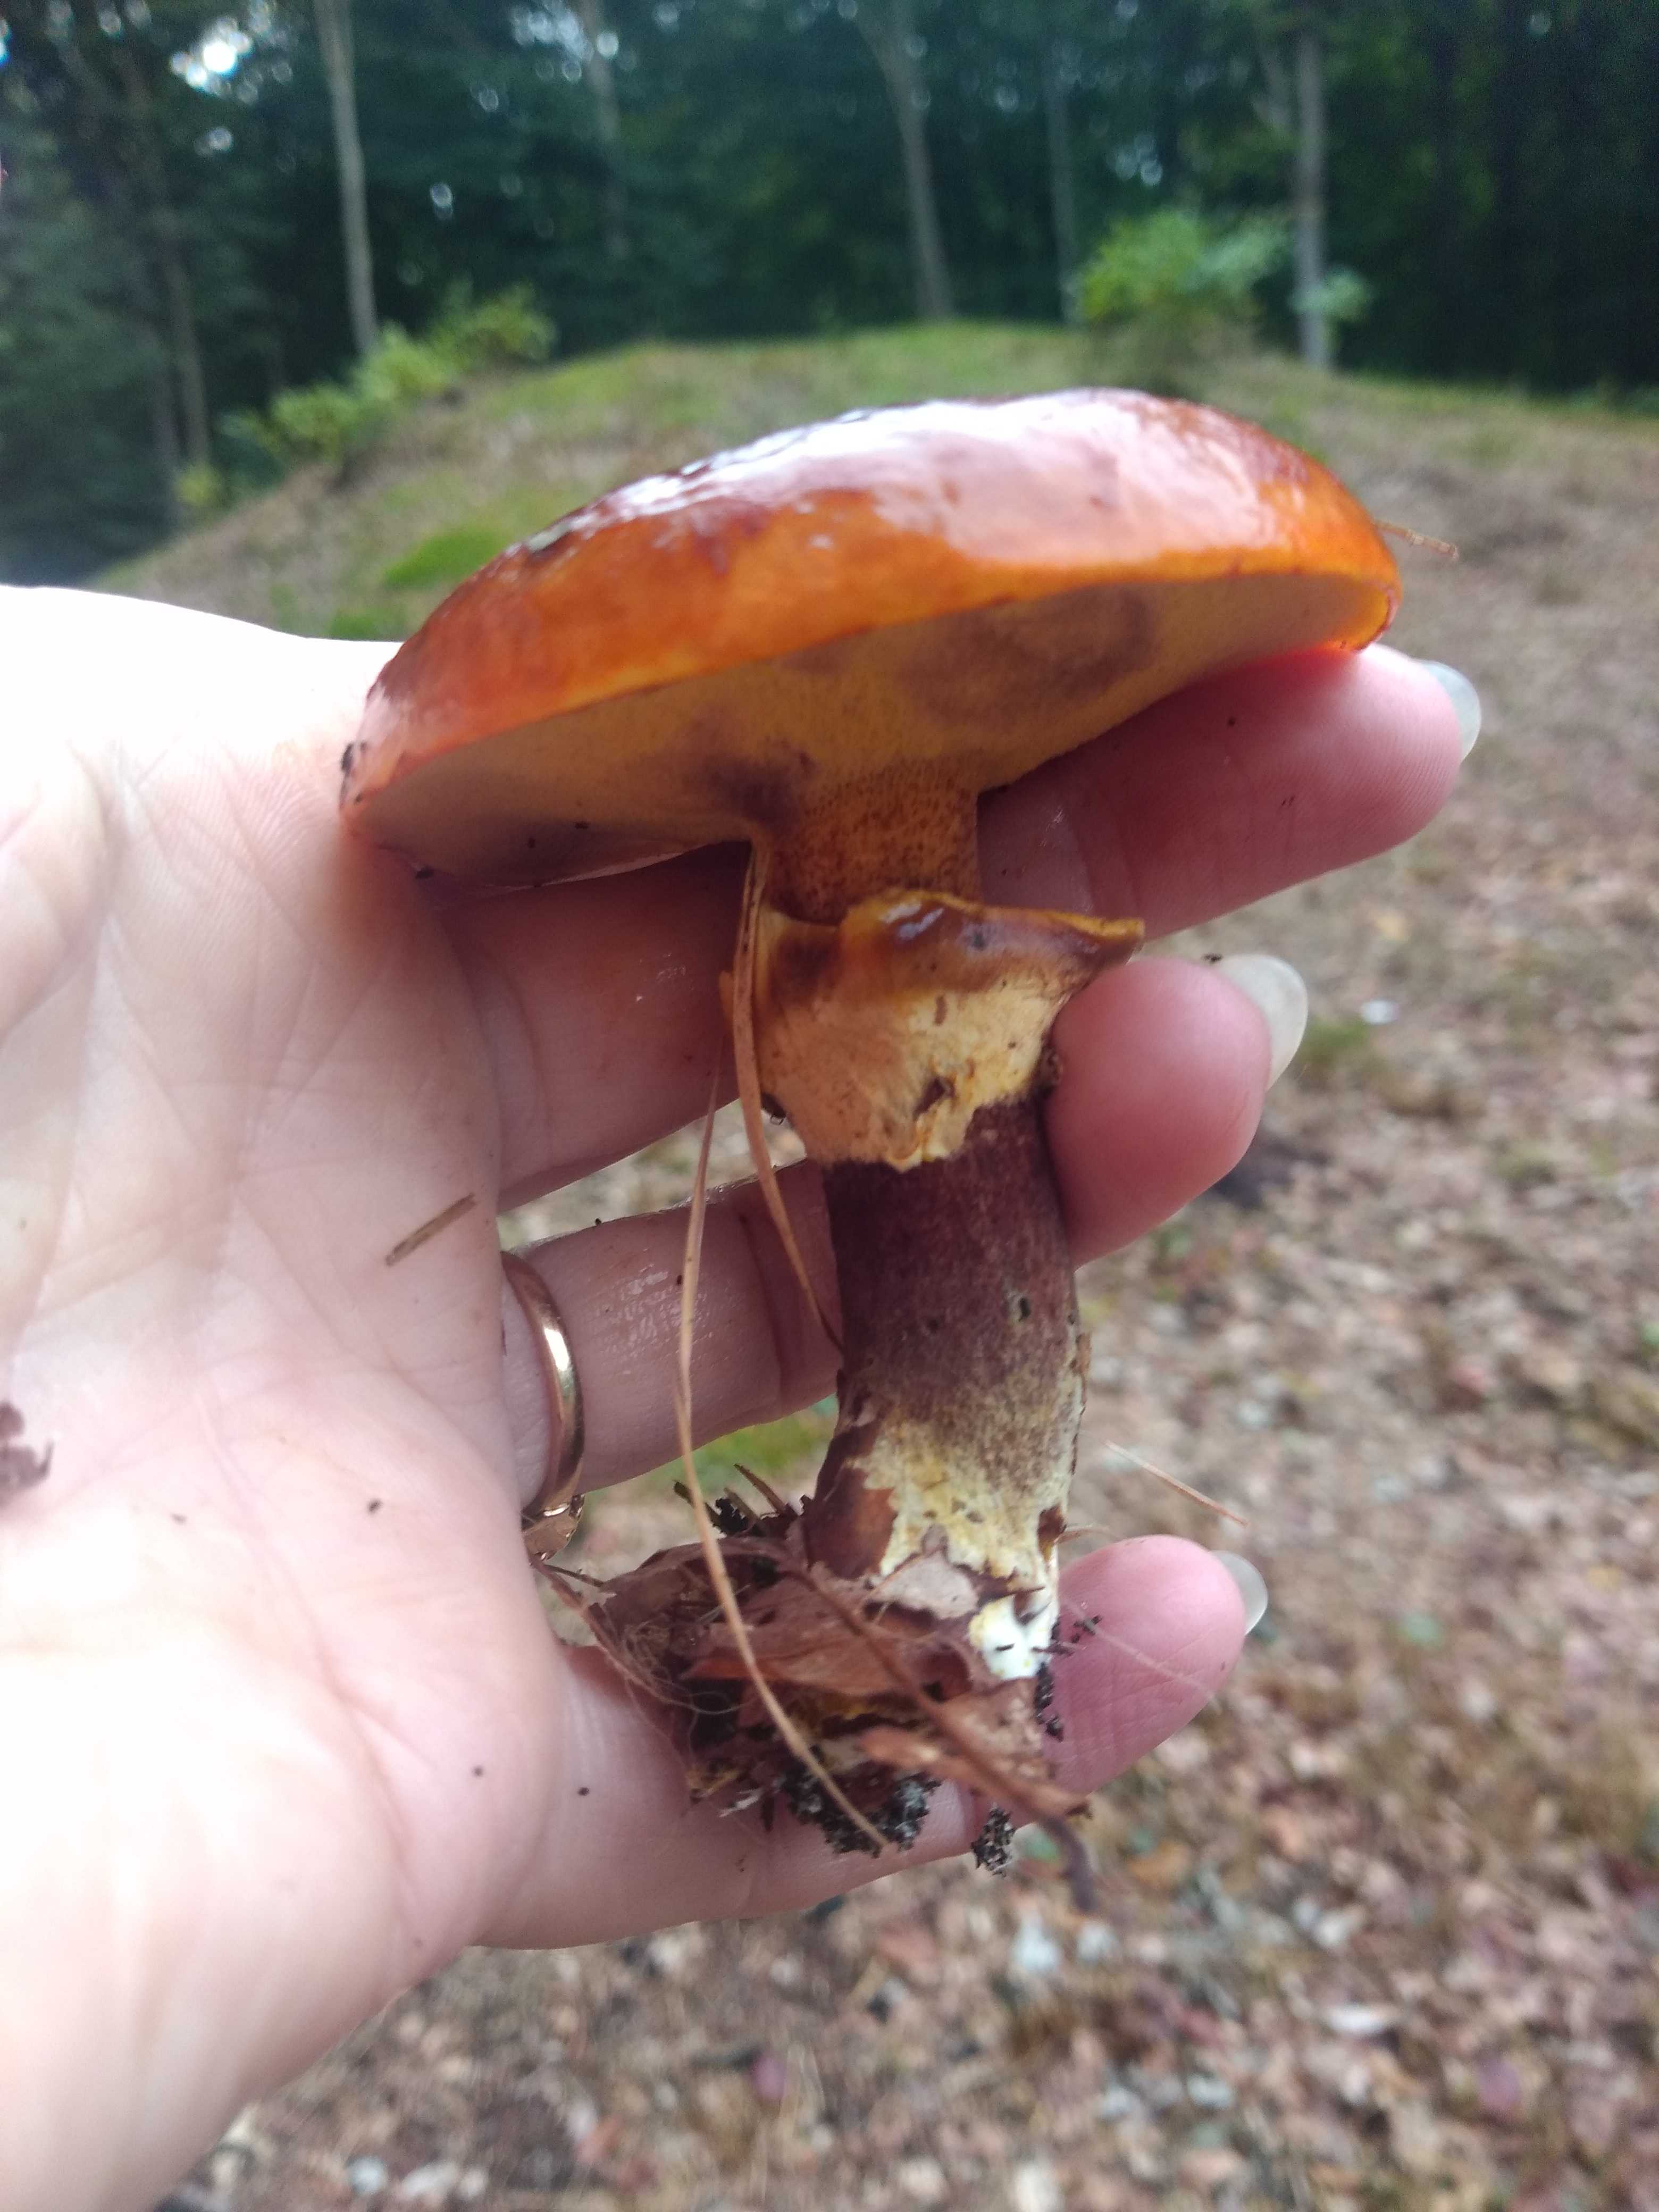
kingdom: Fungi
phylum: Basidiomycota
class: Agaricomycetes
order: Boletales
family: Suillaceae
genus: Suillus
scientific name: Suillus grevillei
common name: lærke-slimrørhat
